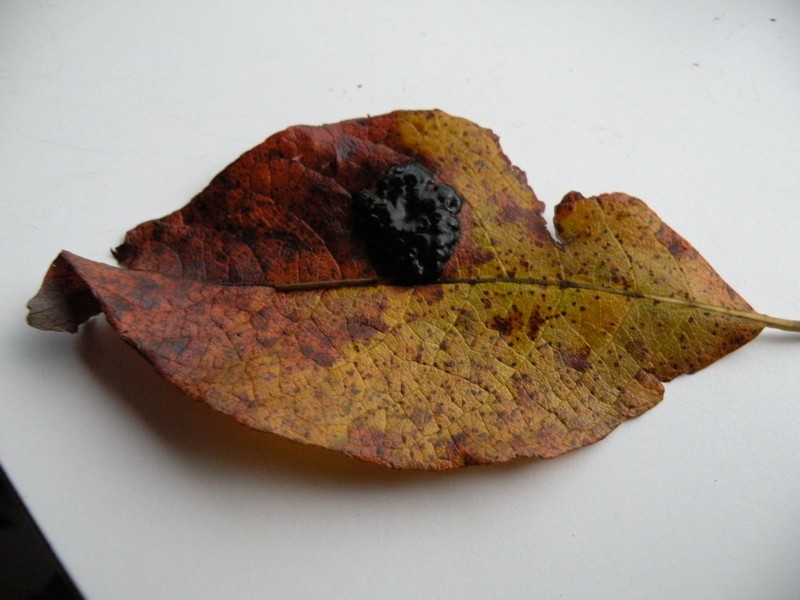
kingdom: Fungi
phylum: Ascomycota
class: Leotiomycetes
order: Rhytismatales
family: Rhytismataceae
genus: Rhytisma
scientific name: Rhytisma salicinum
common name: pile-rynkeplet
